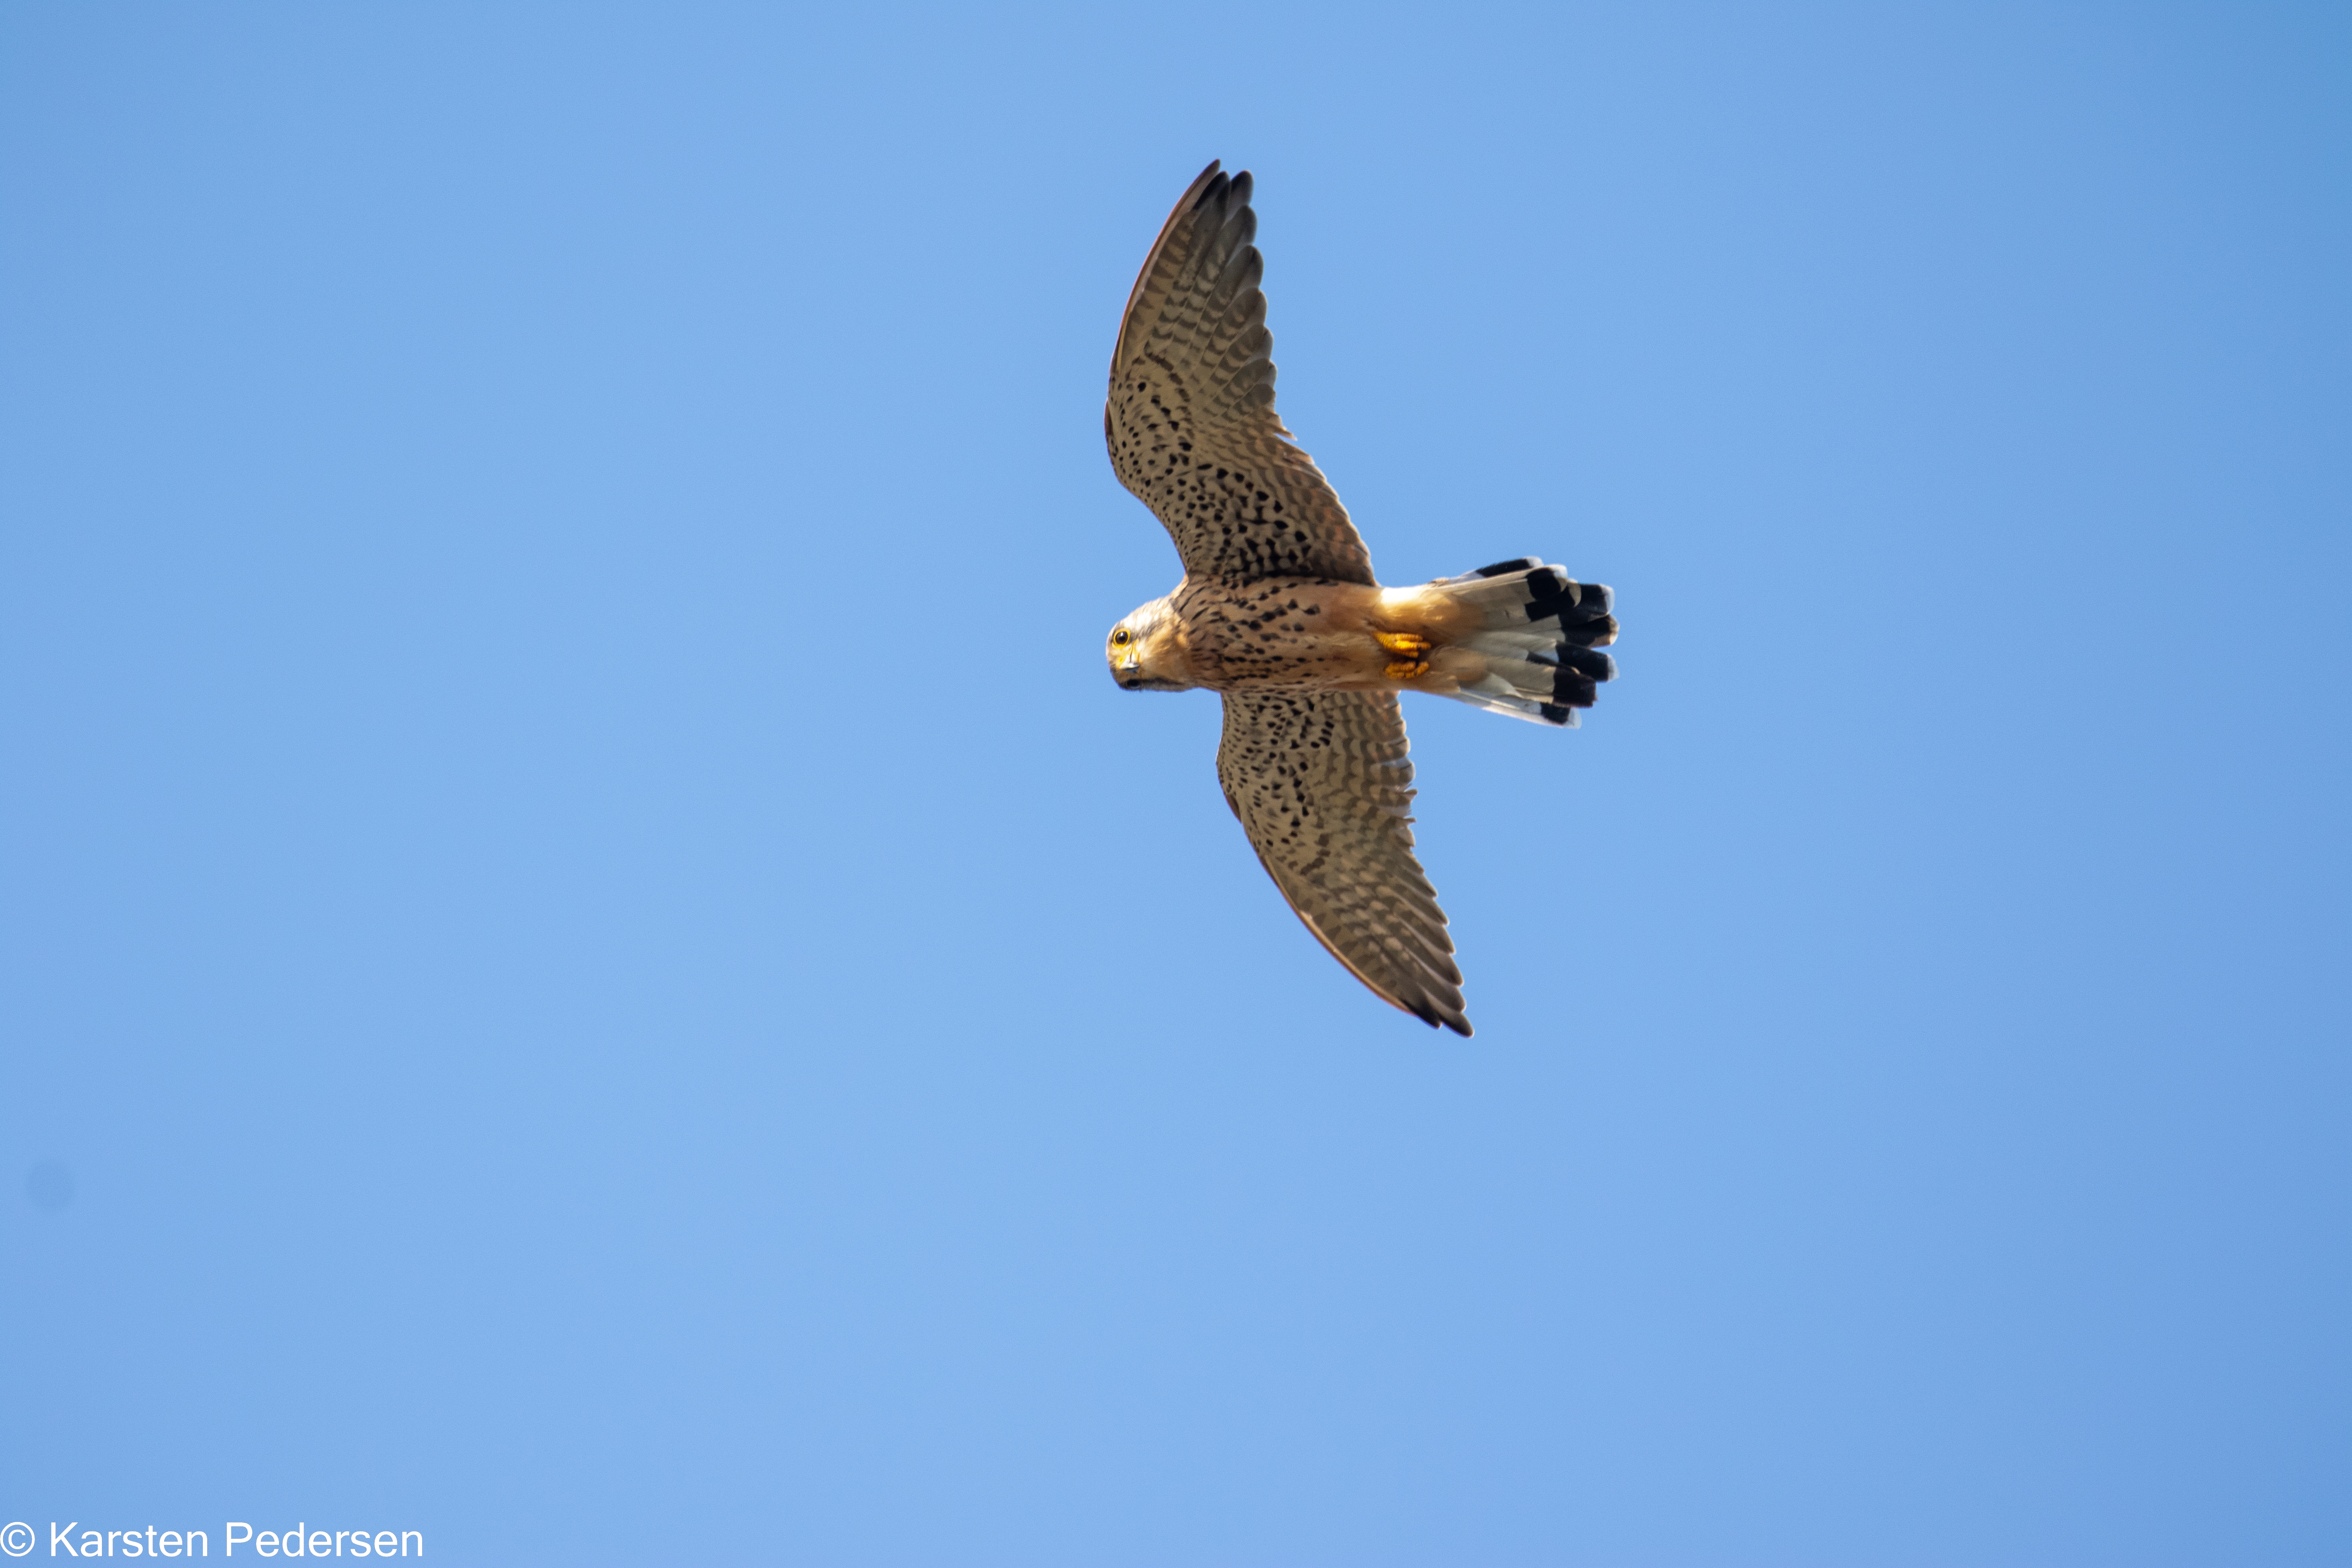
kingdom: Animalia
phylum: Chordata
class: Aves
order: Falconiformes
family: Falconidae
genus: Falco
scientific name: Falco tinnunculus
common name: Tårnfalk
